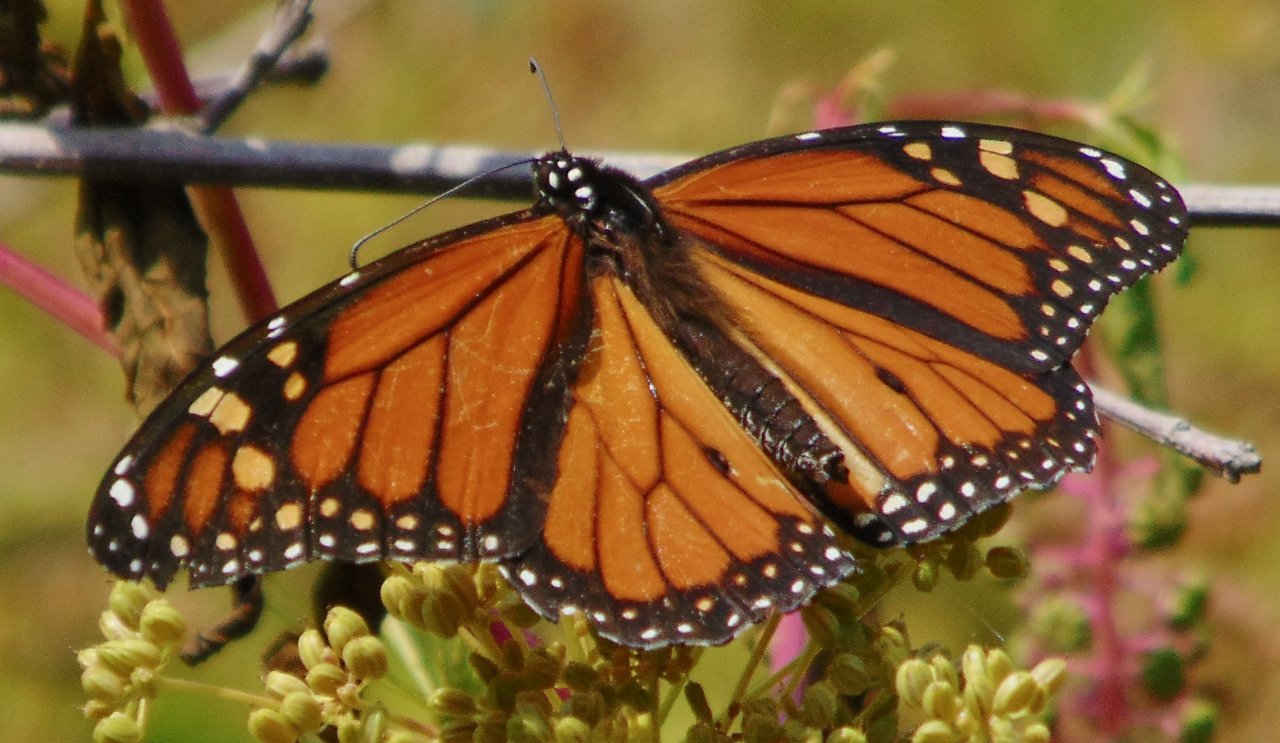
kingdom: Animalia
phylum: Arthropoda
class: Insecta
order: Lepidoptera
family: Nymphalidae
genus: Danaus
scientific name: Danaus plexippus
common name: Monarch
